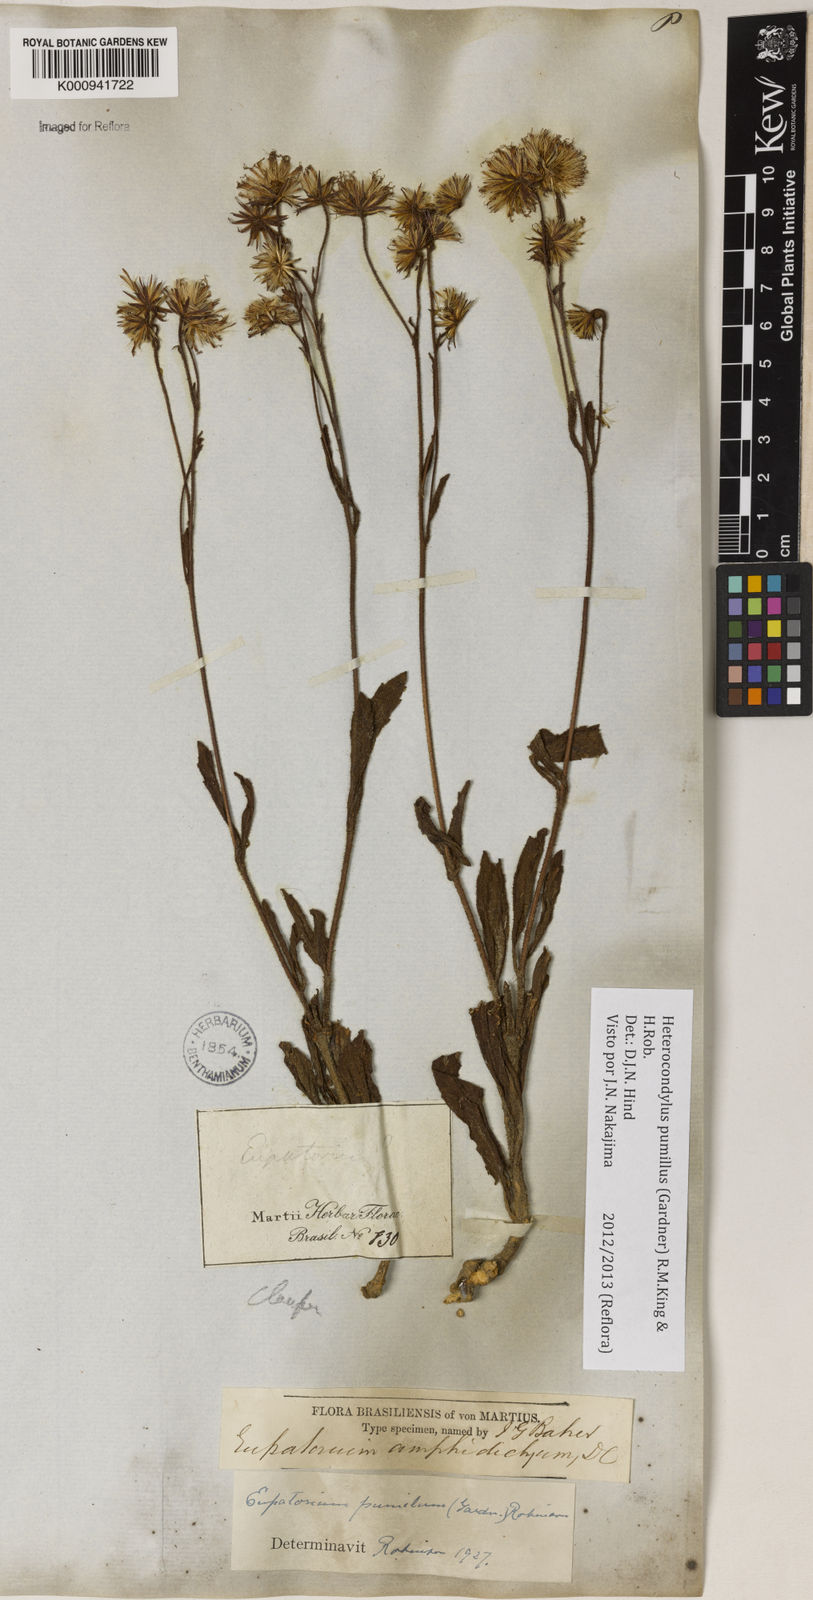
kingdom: Plantae
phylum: Tracheophyta
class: Magnoliopsida
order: Asterales
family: Asteraceae
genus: Heterocondylus
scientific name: Heterocondylus pumilus
